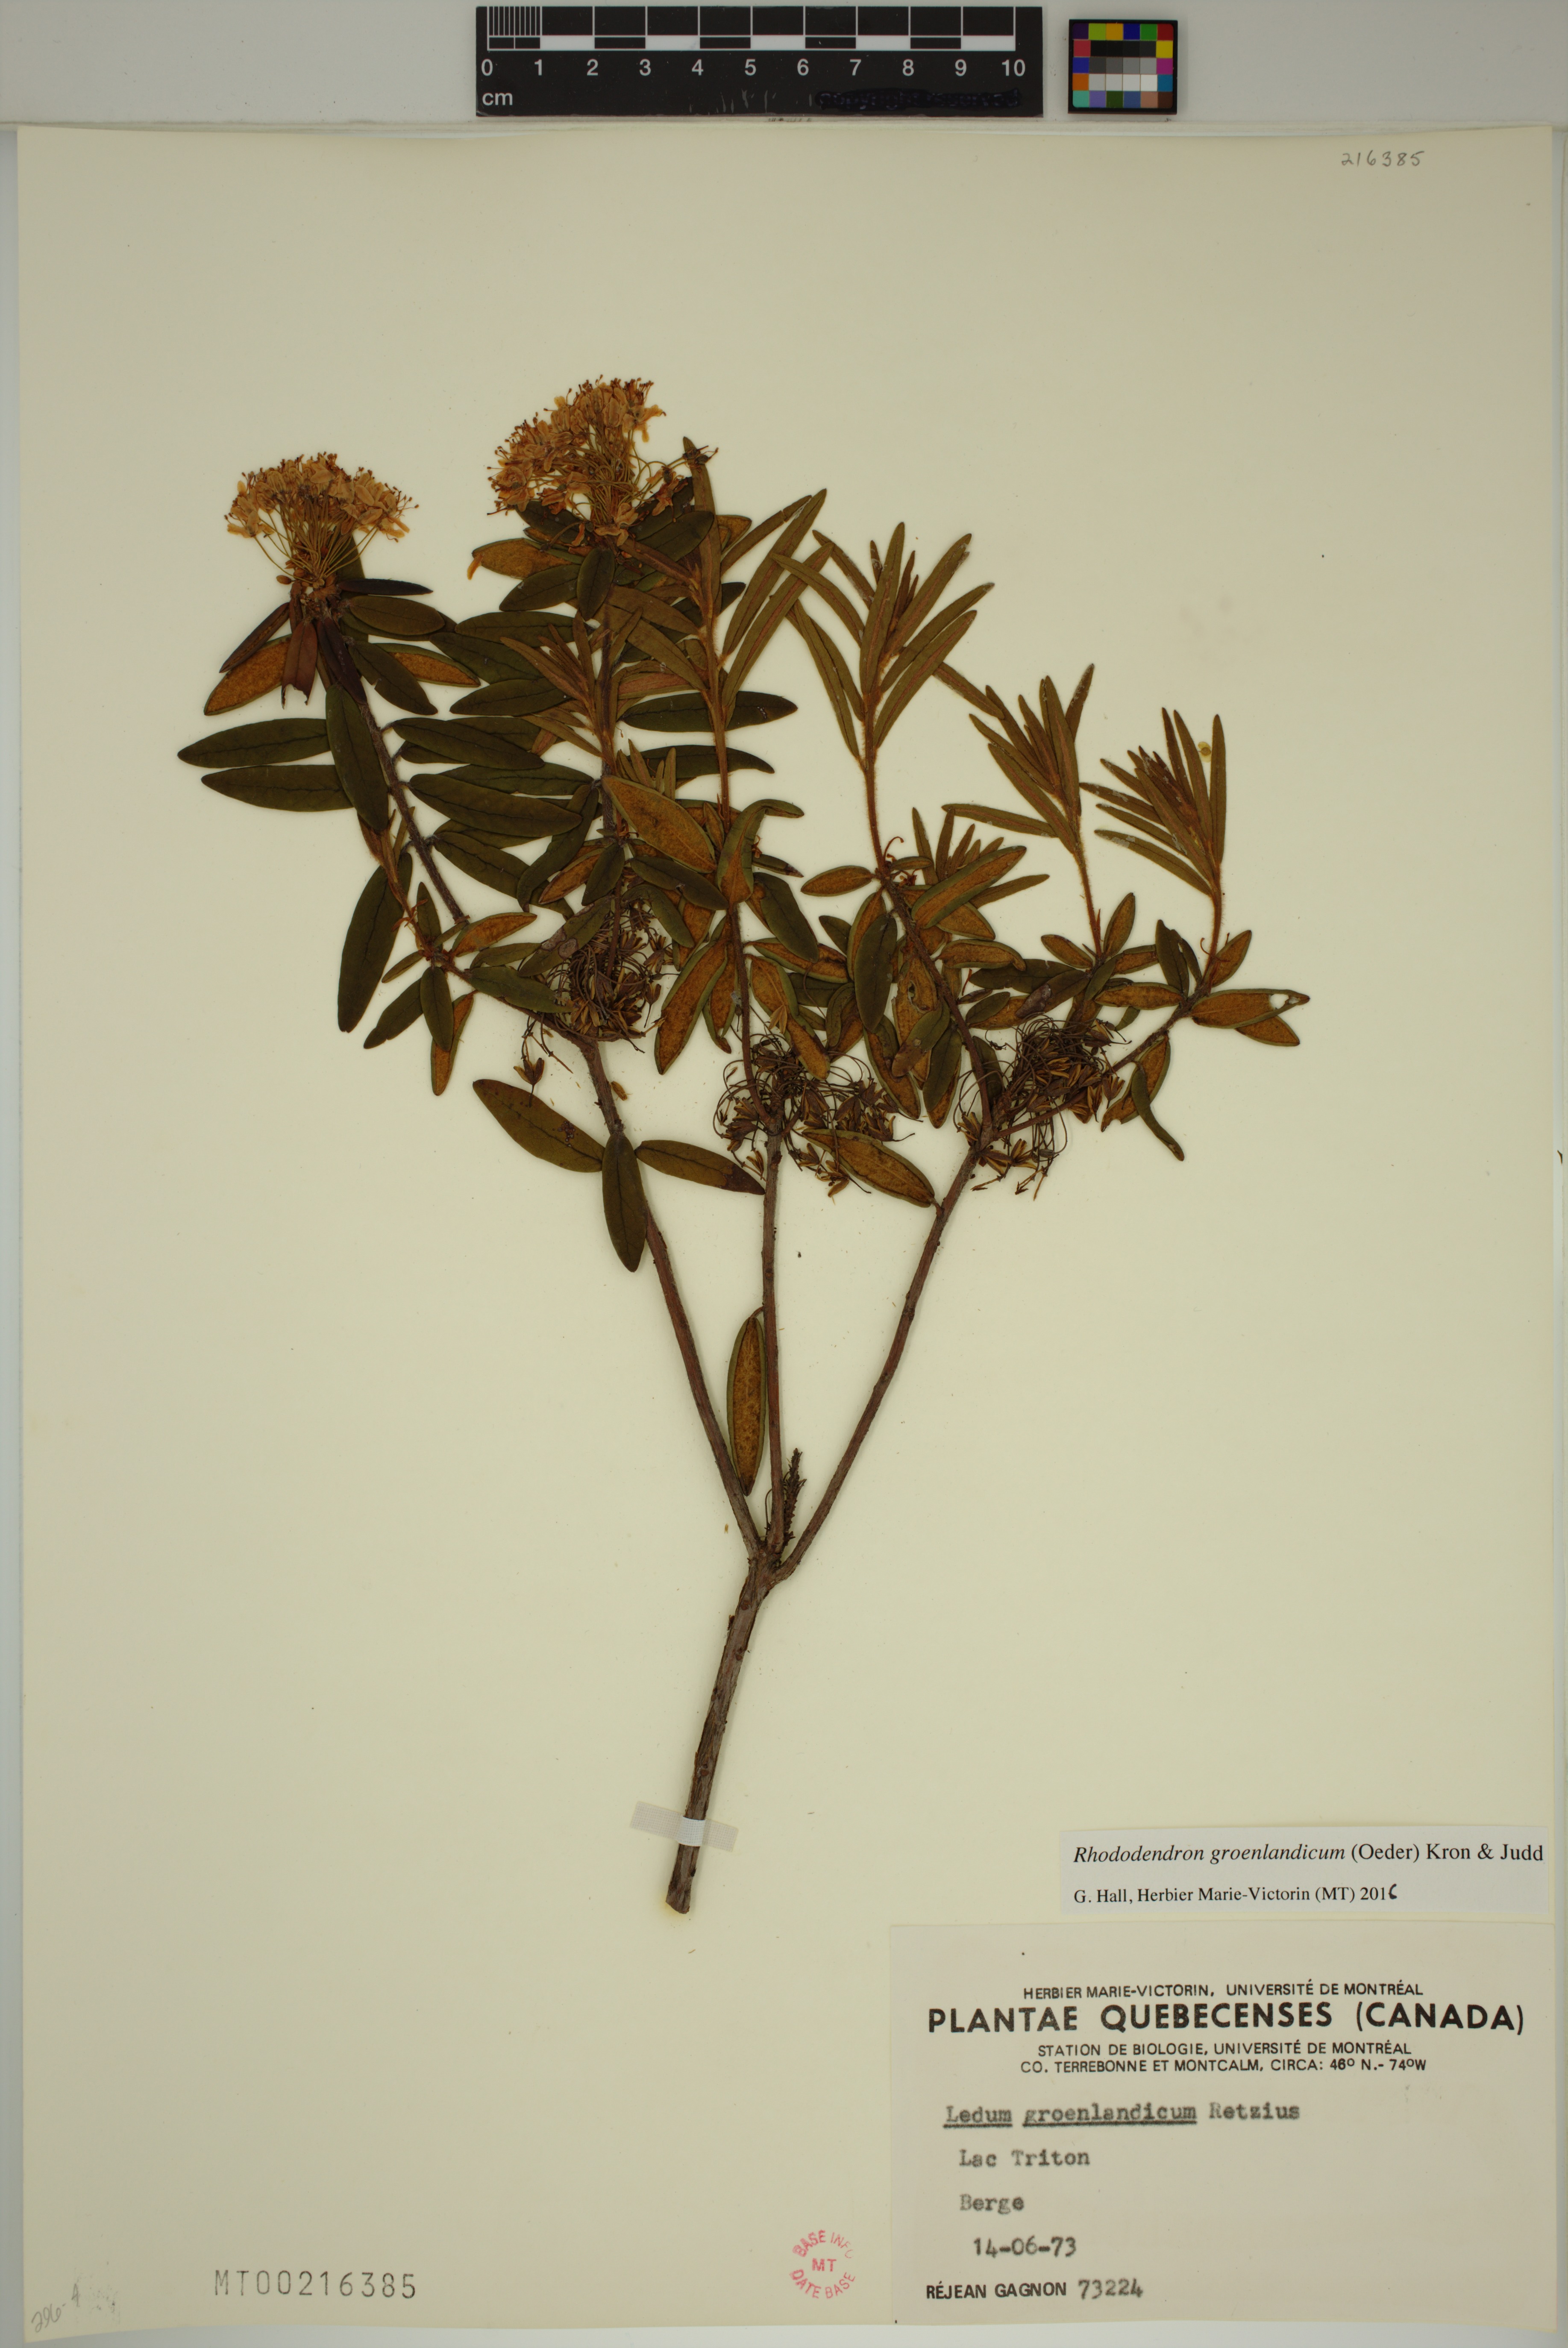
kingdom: Plantae
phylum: Tracheophyta
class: Magnoliopsida
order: Ericales
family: Ericaceae
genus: Rhododendron
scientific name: Rhododendron groenlandicum
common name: Bog labrador tea
